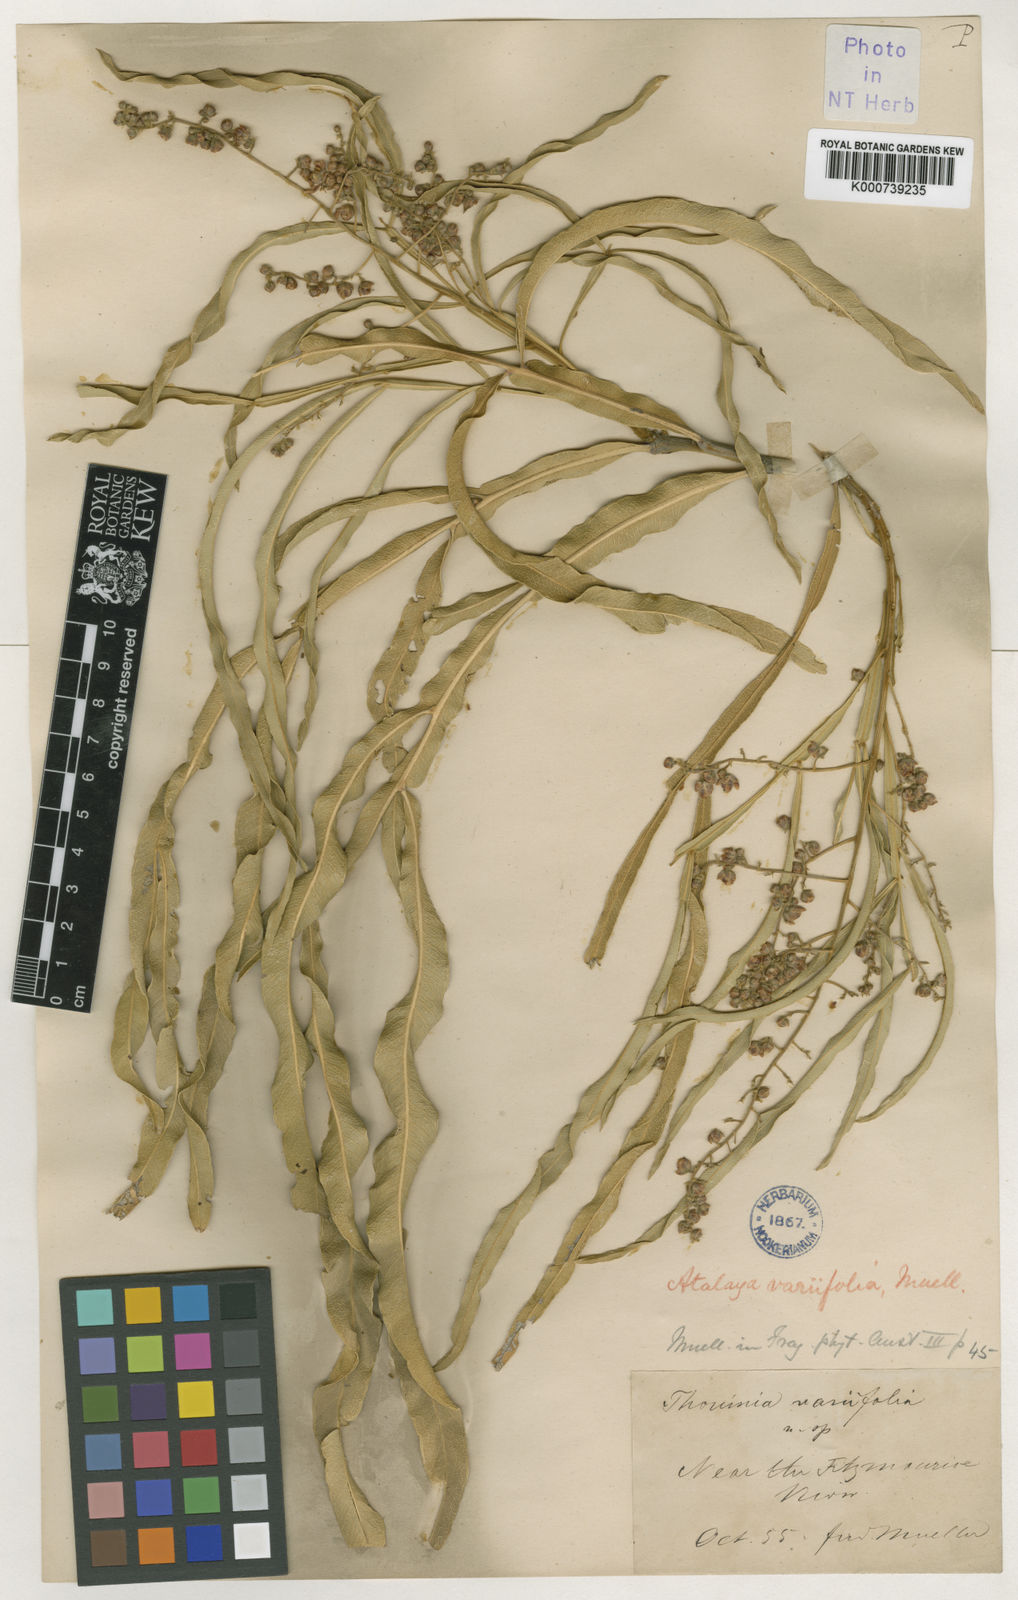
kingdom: Plantae
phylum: Tracheophyta
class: Magnoliopsida
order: Sapindales
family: Sapindaceae
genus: Atalaya
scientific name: Atalaya variifolia
